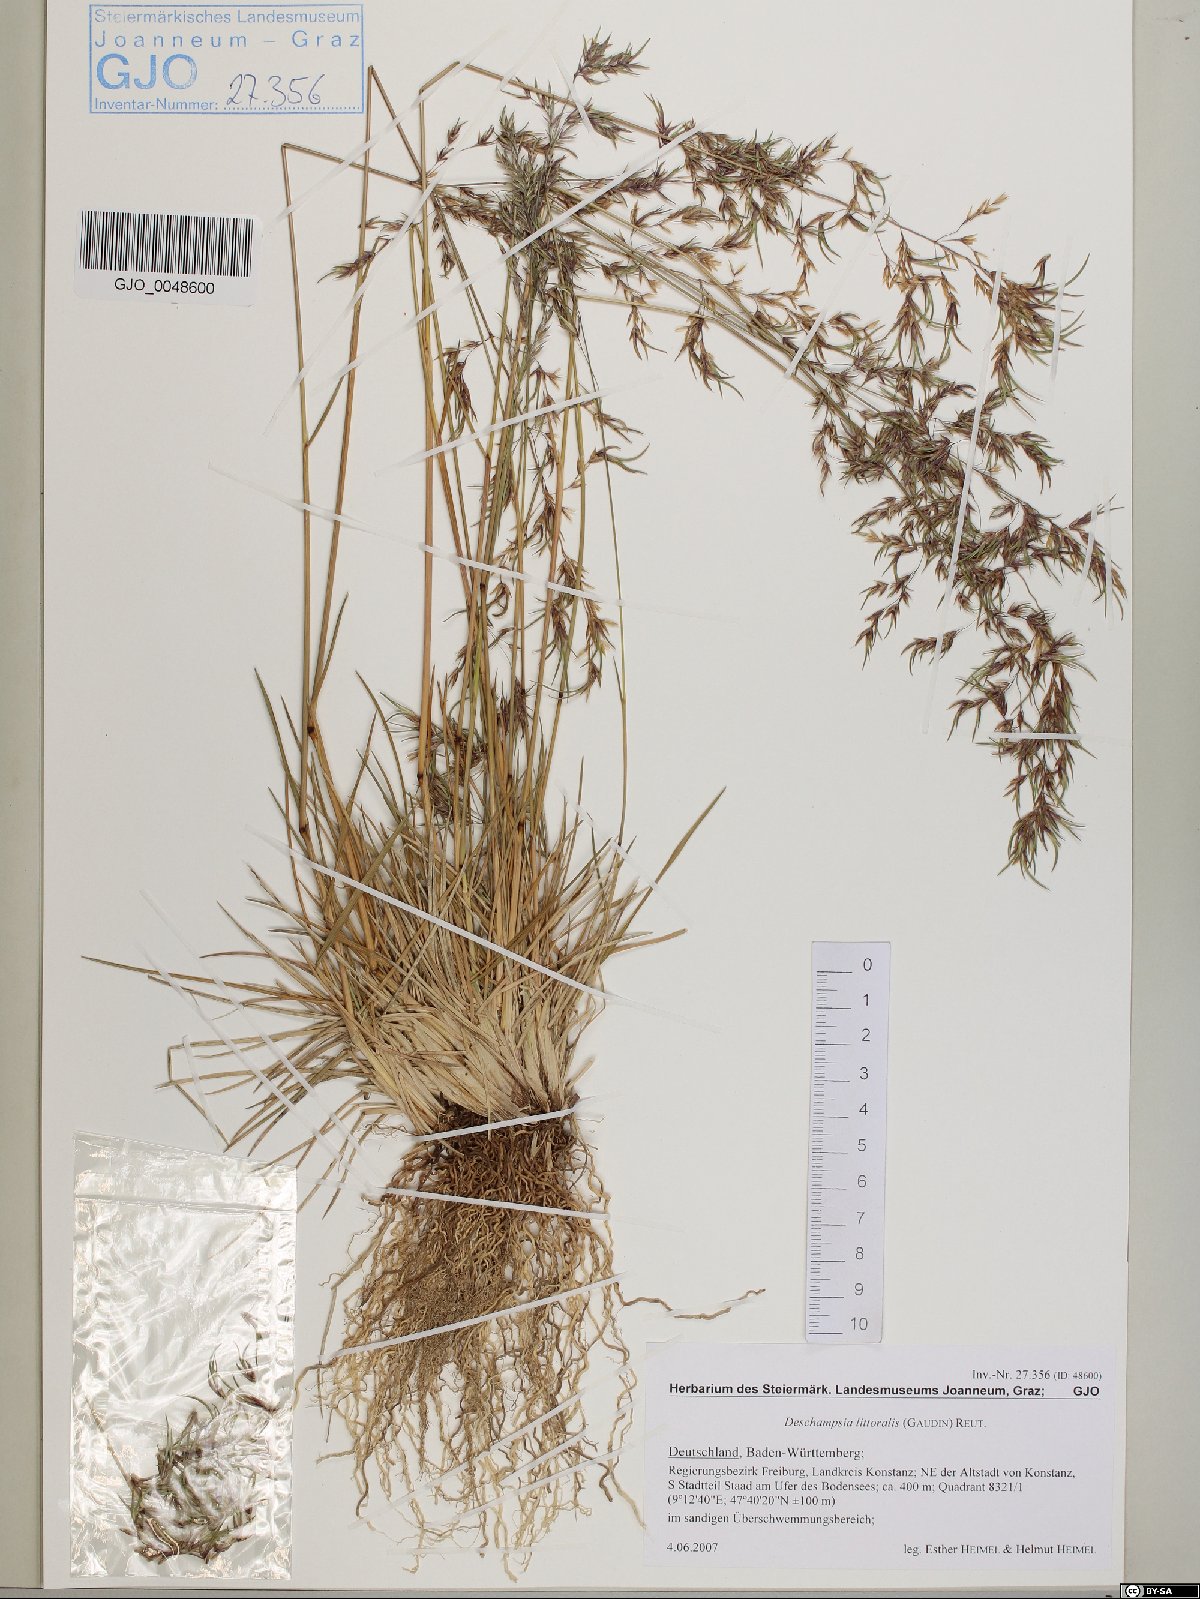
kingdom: Plantae
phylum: Tracheophyta
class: Liliopsida
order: Poales
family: Poaceae
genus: Deschampsia
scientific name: Deschampsia cespitosa
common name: Tufted hair-grass
